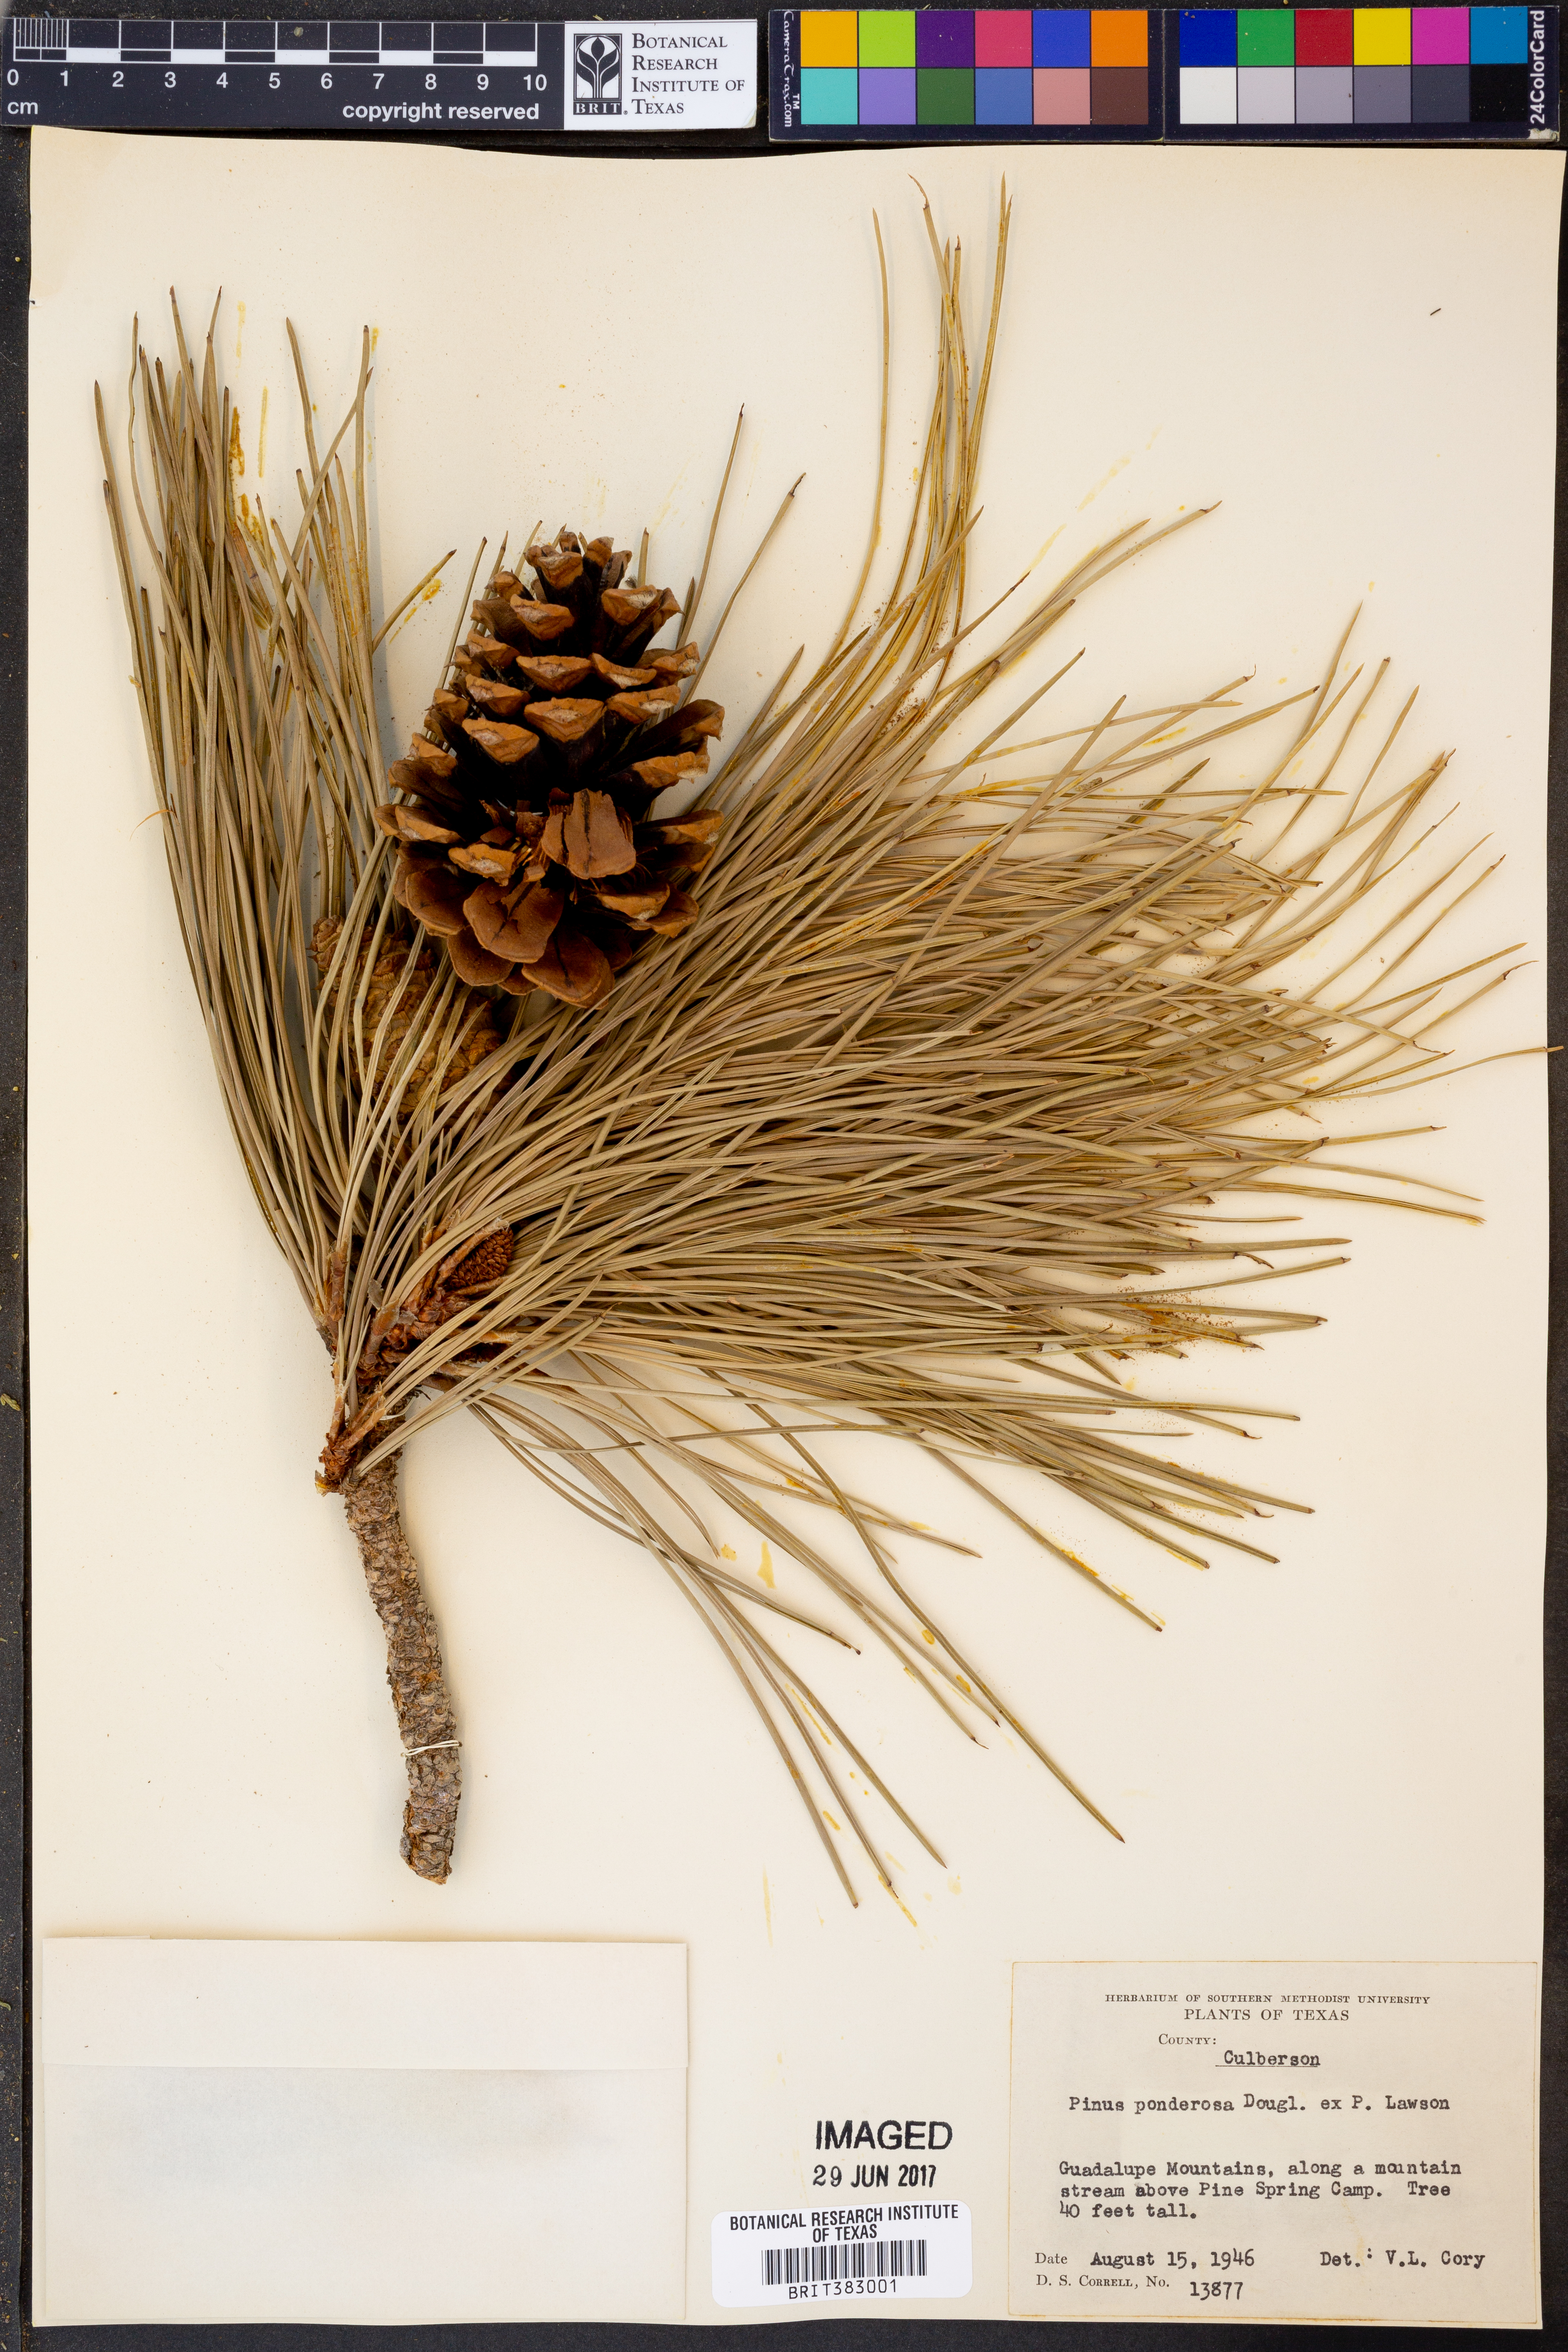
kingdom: Plantae
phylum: Tracheophyta
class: Pinopsida
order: Pinales
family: Pinaceae
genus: Pinus
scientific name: Pinus ponderosa
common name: Western yellow-pine
